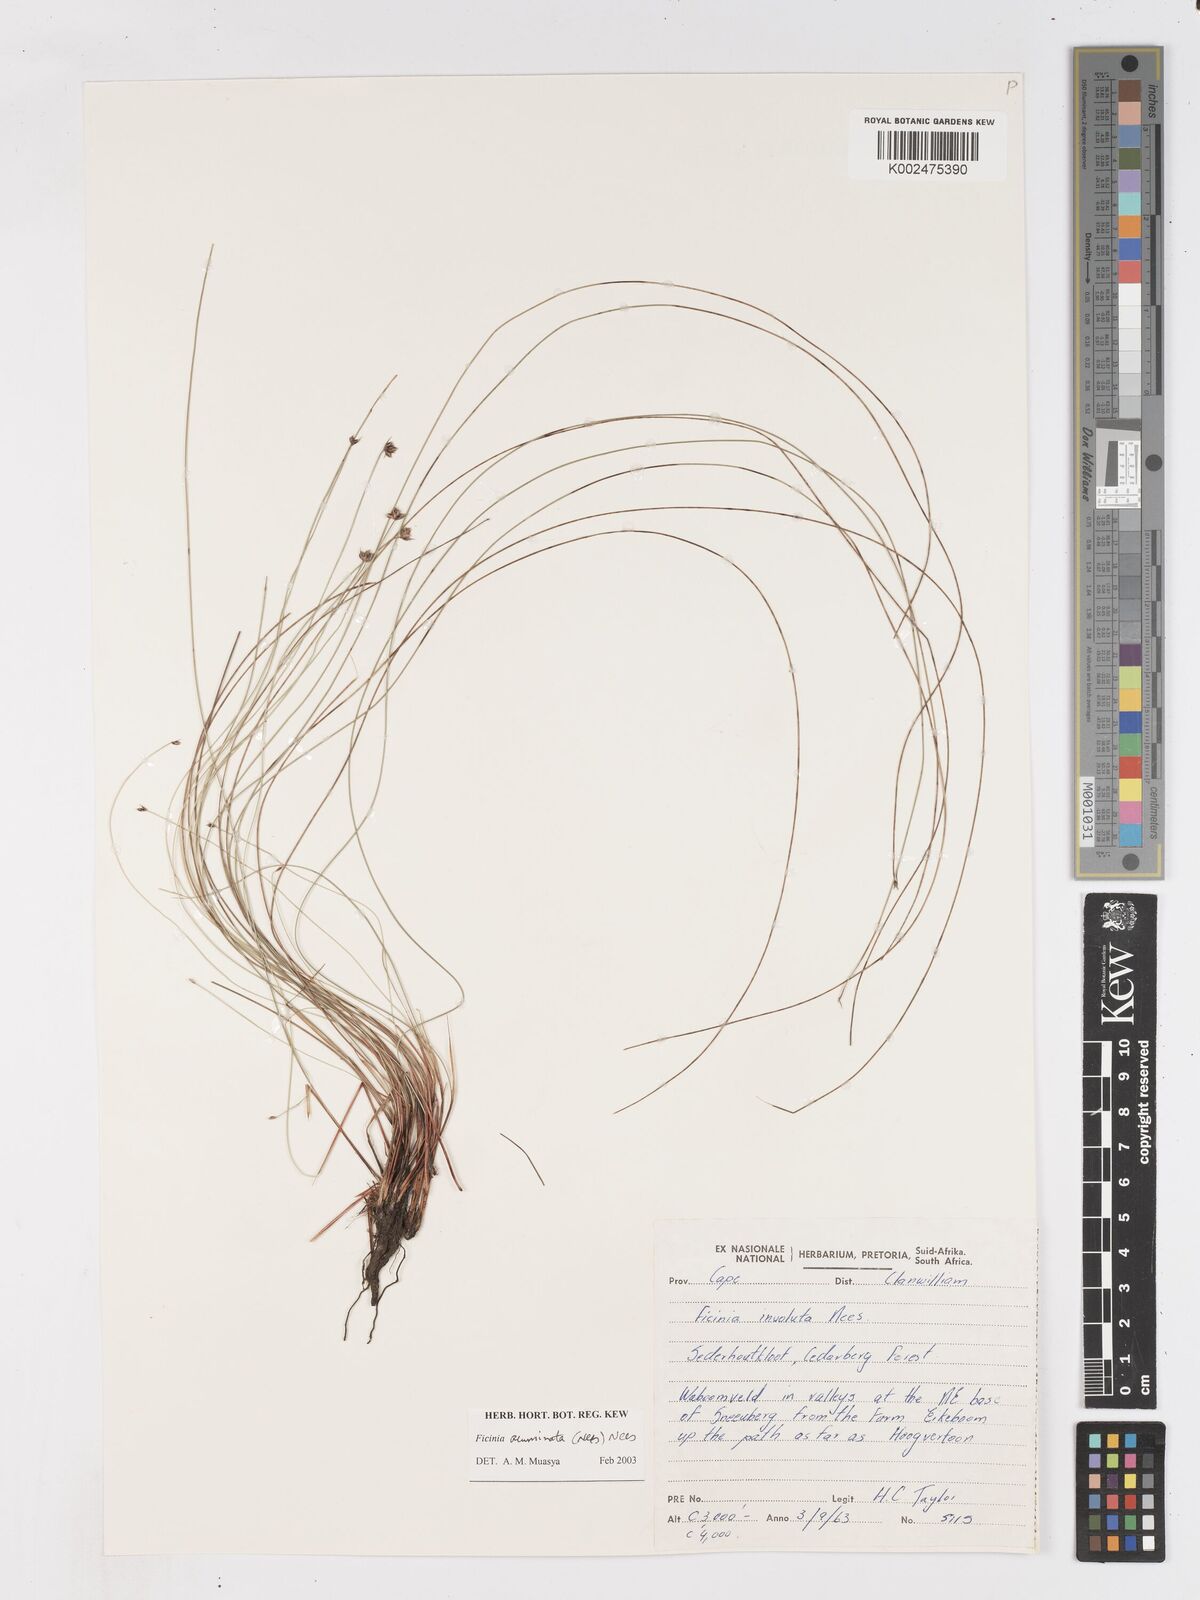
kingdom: Plantae
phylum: Tracheophyta
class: Liliopsida
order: Poales
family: Cyperaceae
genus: Ficinia
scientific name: Ficinia acuminata
